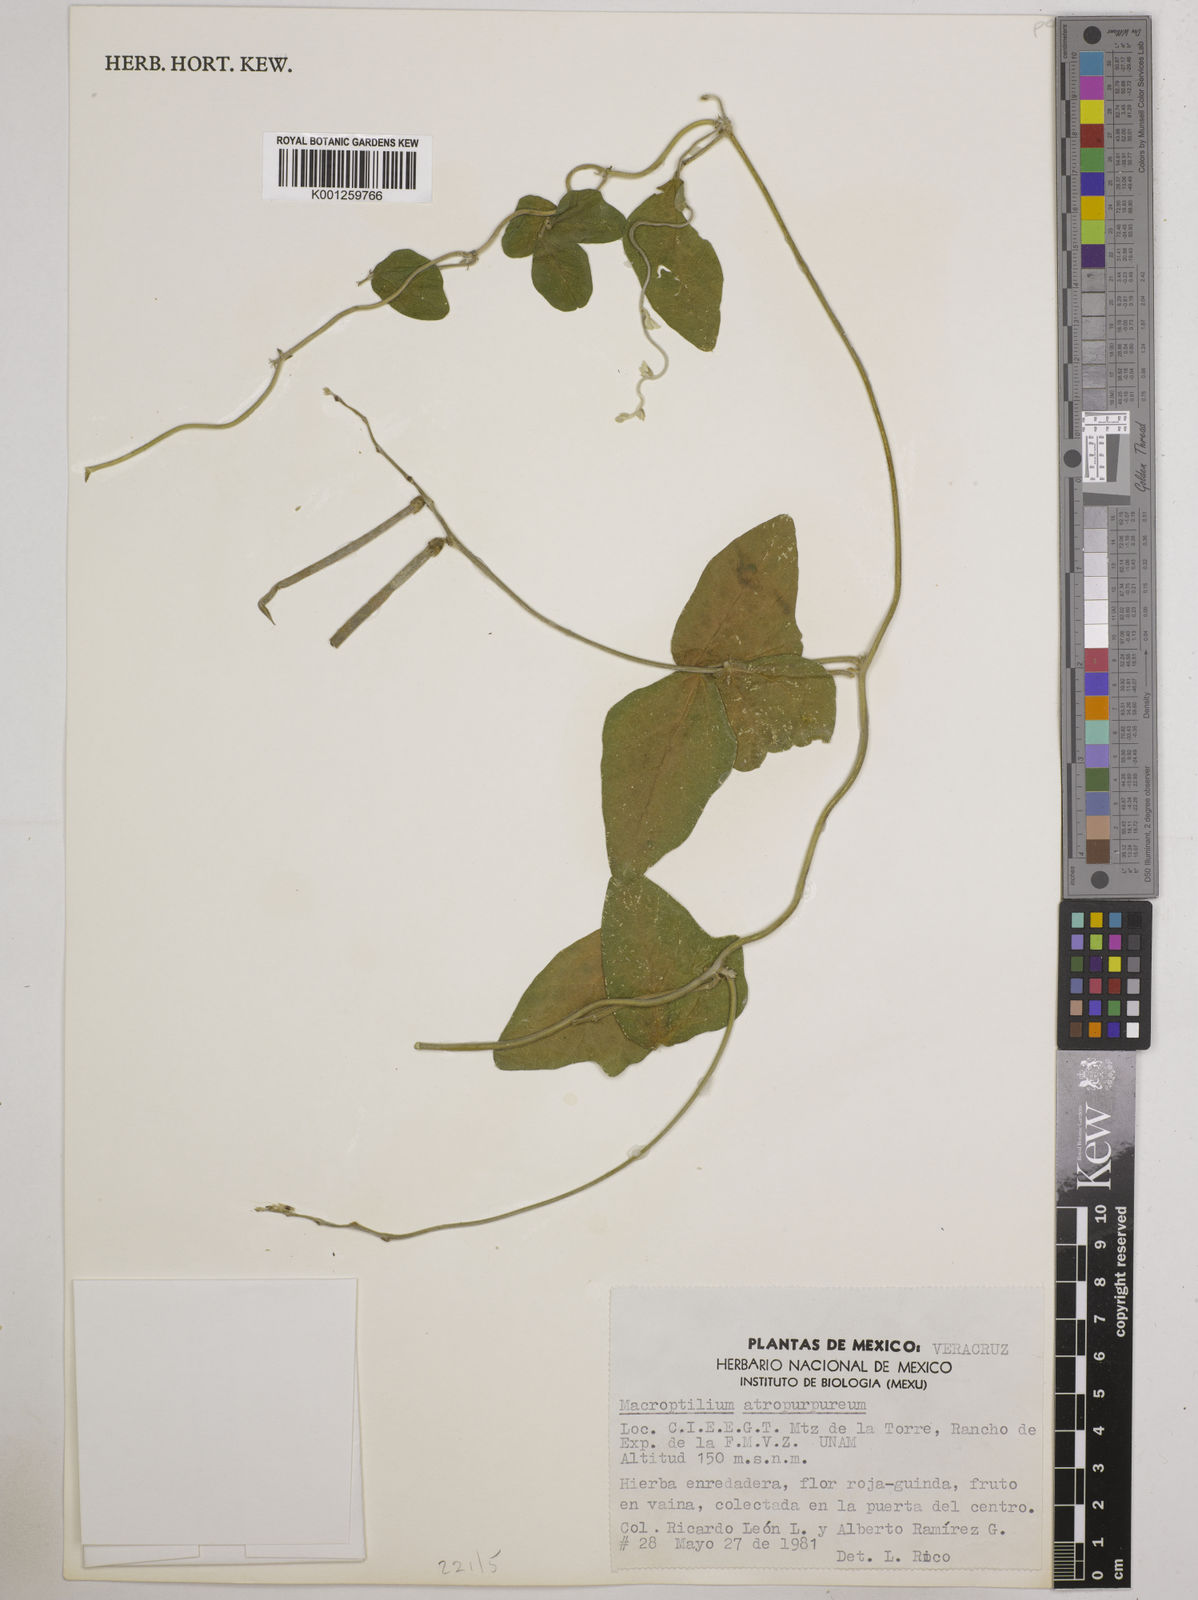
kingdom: Plantae
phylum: Tracheophyta
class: Magnoliopsida
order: Fabales
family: Fabaceae
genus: Macroptilium
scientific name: Macroptilium atropurpureum
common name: Purple bushbean
